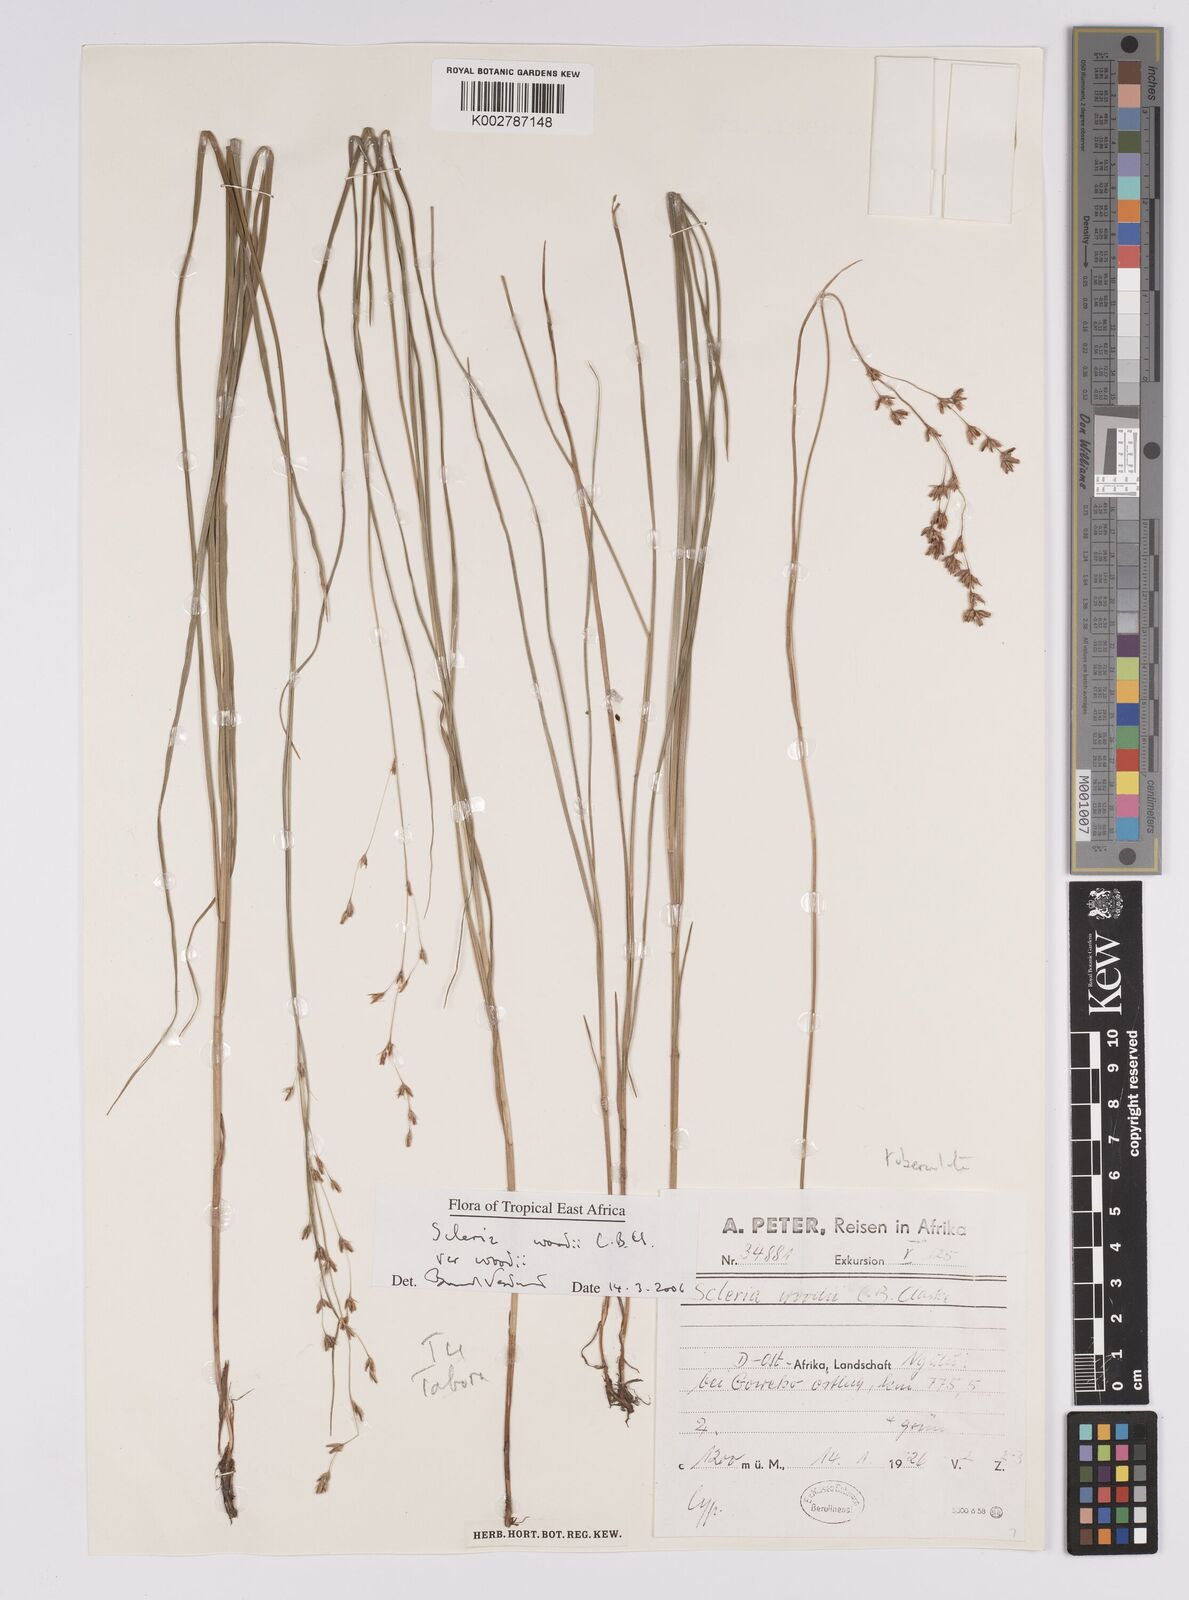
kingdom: Plantae
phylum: Tracheophyta
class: Liliopsida
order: Poales
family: Cyperaceae
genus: Scleria
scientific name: Scleria woodii
